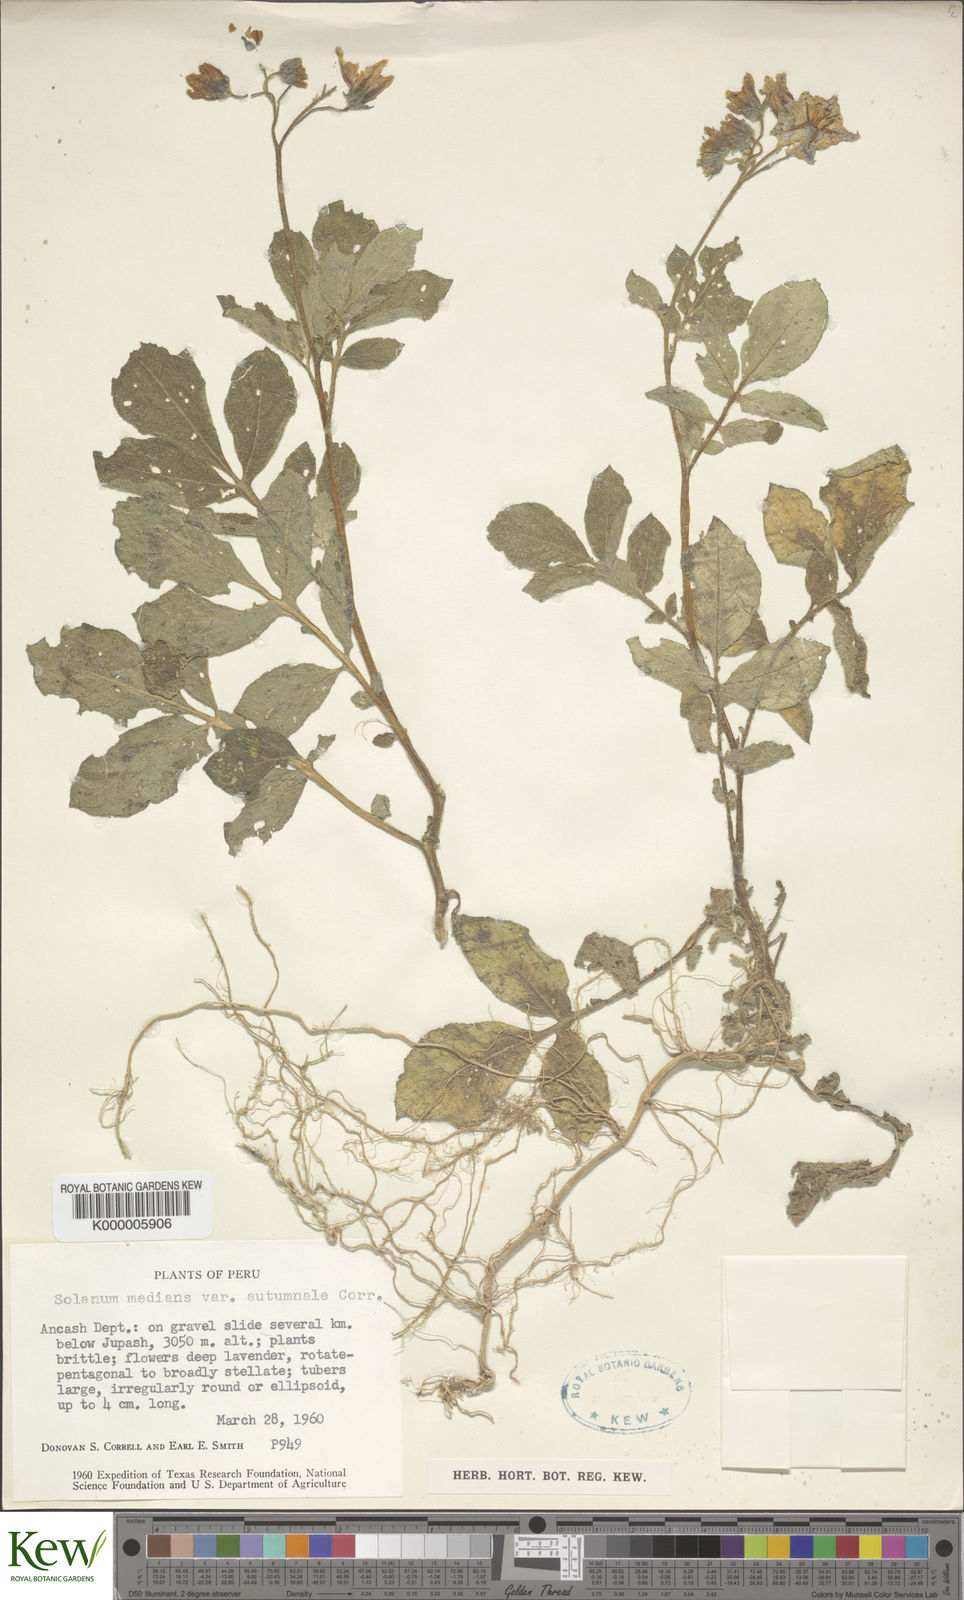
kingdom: Plantae
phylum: Tracheophyta
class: Magnoliopsida
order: Solanales
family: Solanaceae
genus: Solanum
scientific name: Solanum medians
